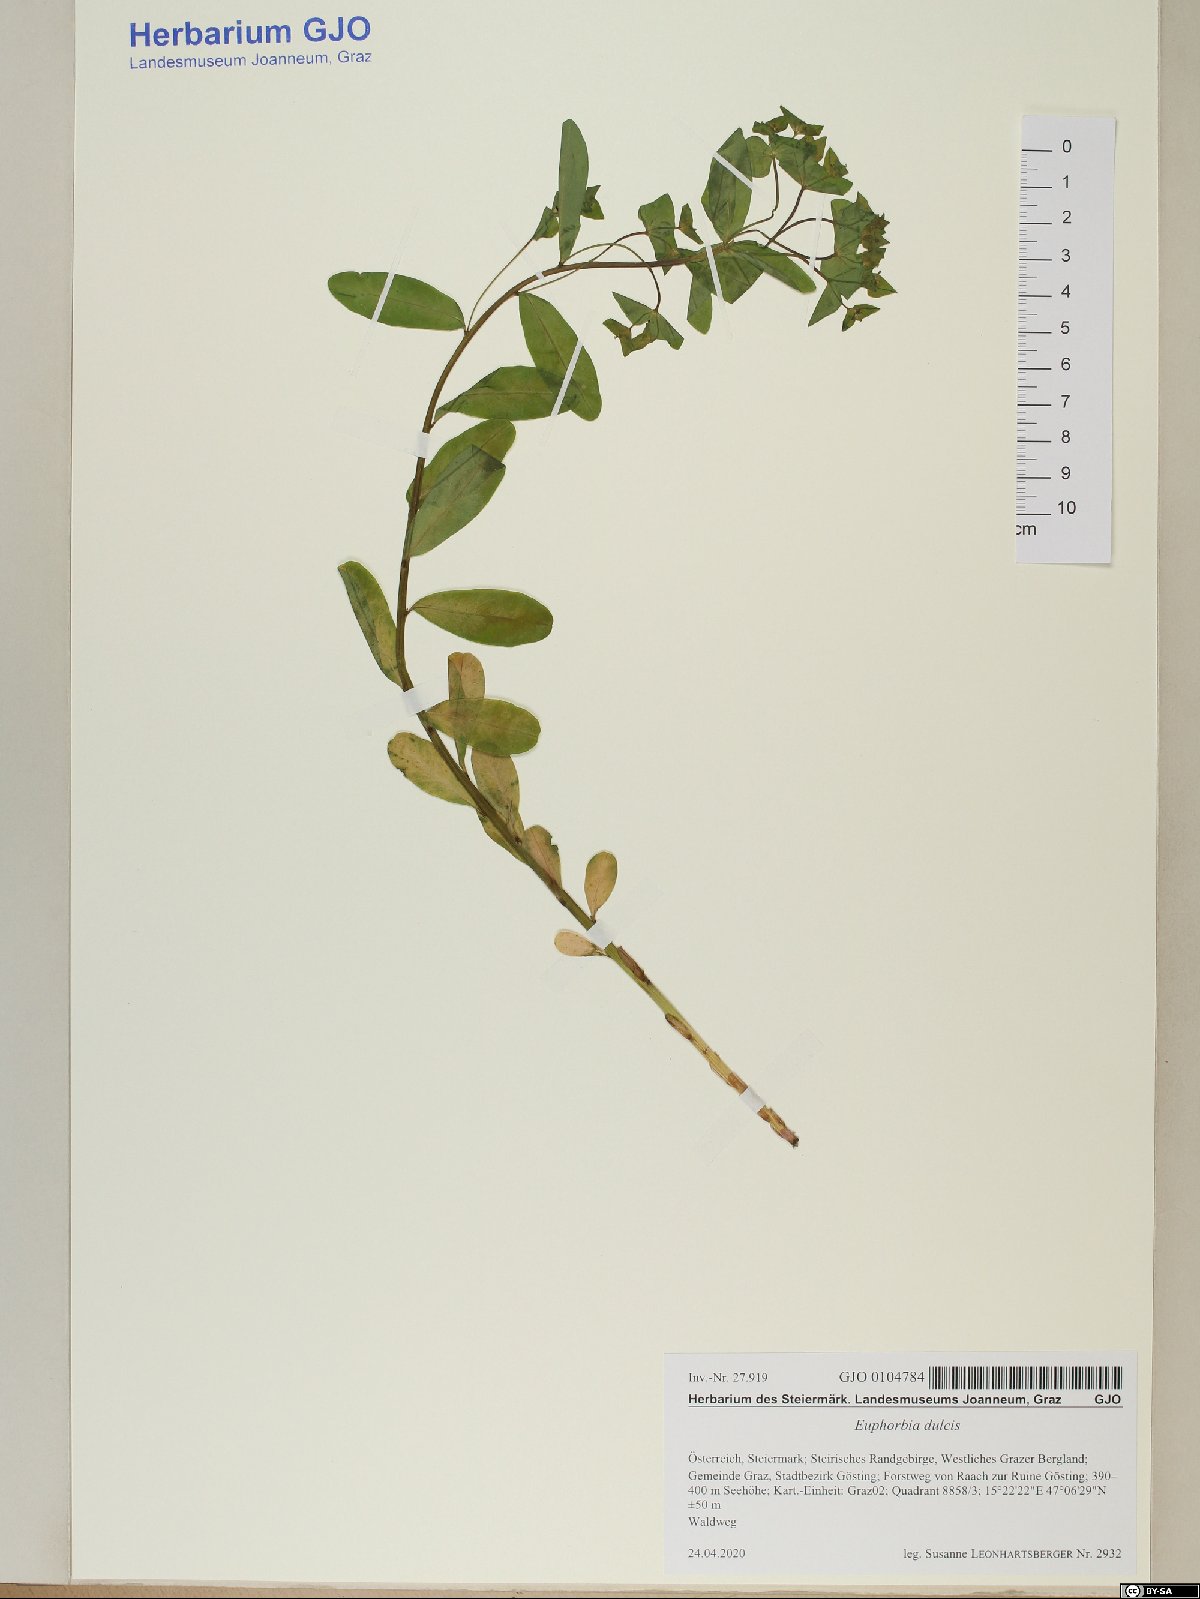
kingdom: Plantae
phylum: Tracheophyta
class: Magnoliopsida
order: Malpighiales
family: Euphorbiaceae
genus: Euphorbia
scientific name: Euphorbia dulcis
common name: Sweet spurge
